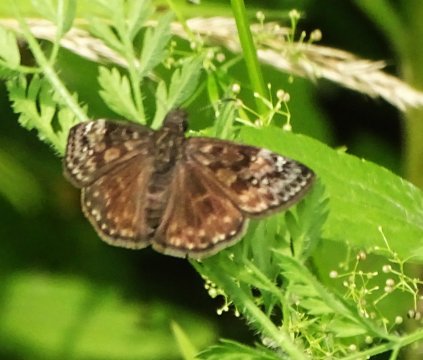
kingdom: Animalia
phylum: Arthropoda
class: Insecta
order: Lepidoptera
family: Hesperiidae
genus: Gesta
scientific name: Gesta
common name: Wild Indigo Duskywing
